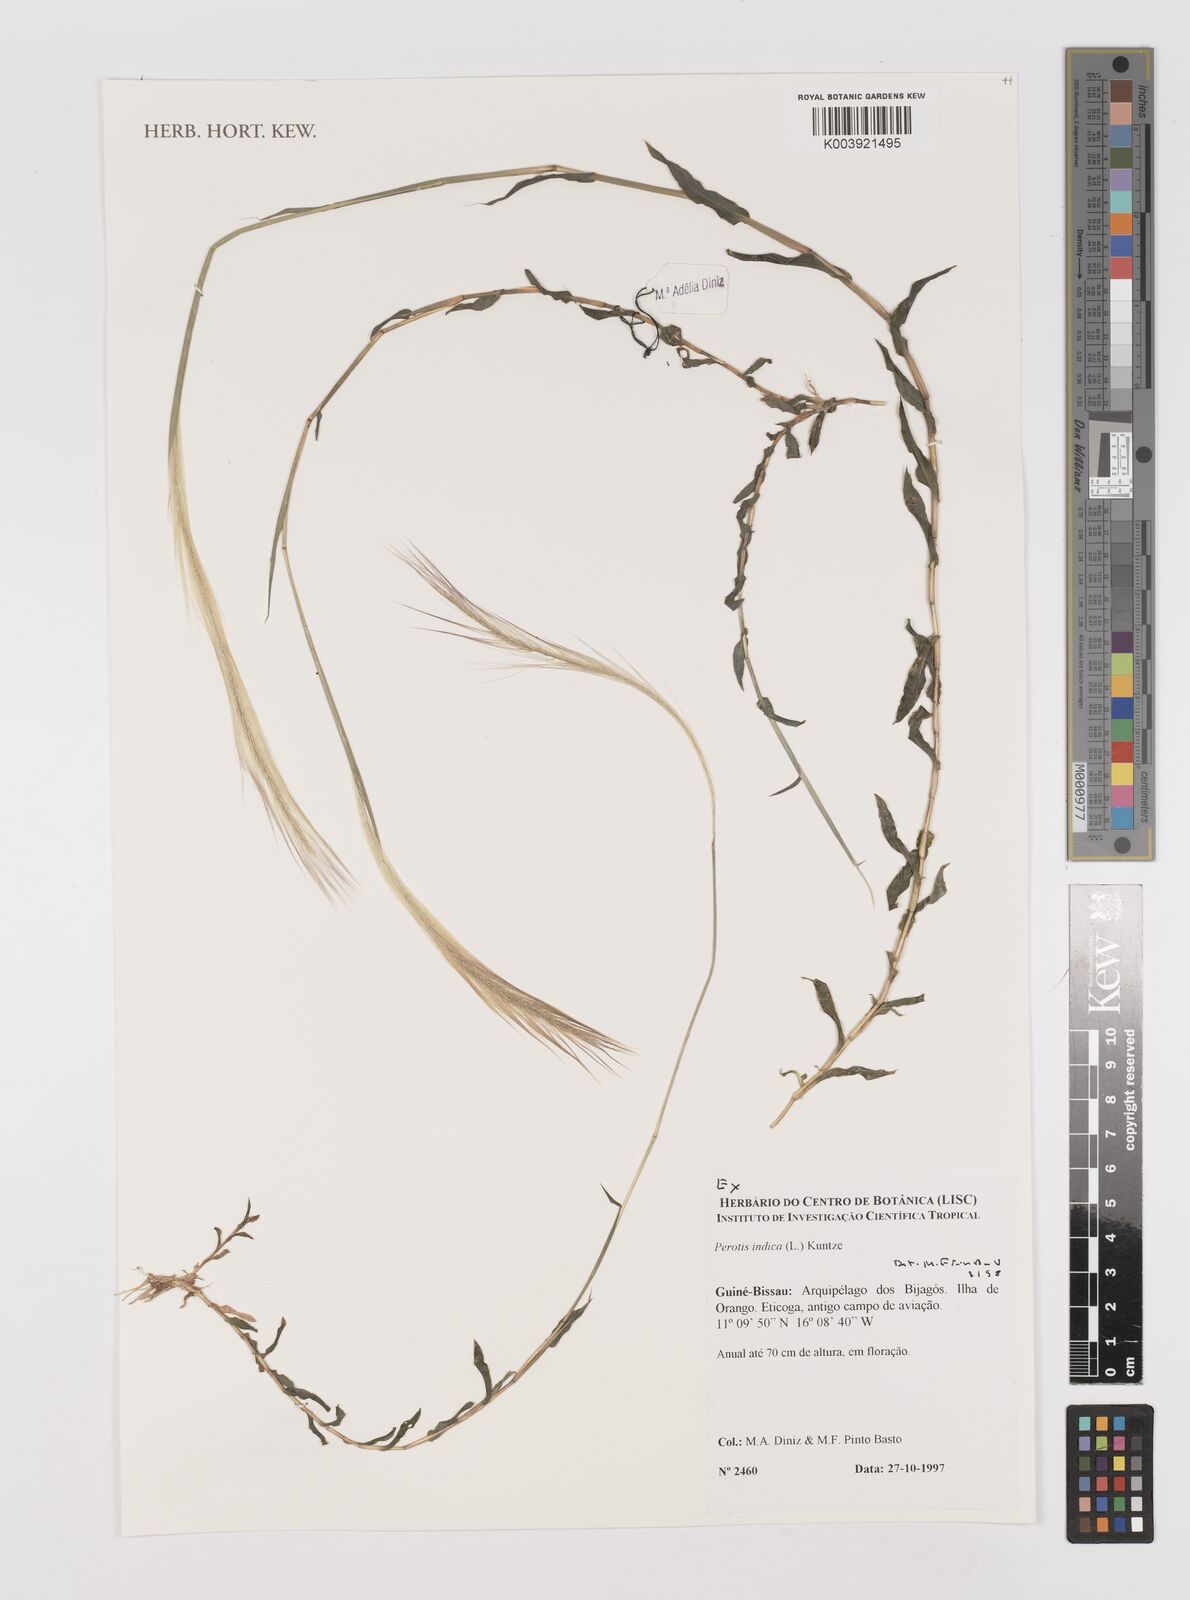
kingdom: Plantae
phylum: Tracheophyta
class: Liliopsida
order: Poales
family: Poaceae
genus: Perotis
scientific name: Perotis indica
